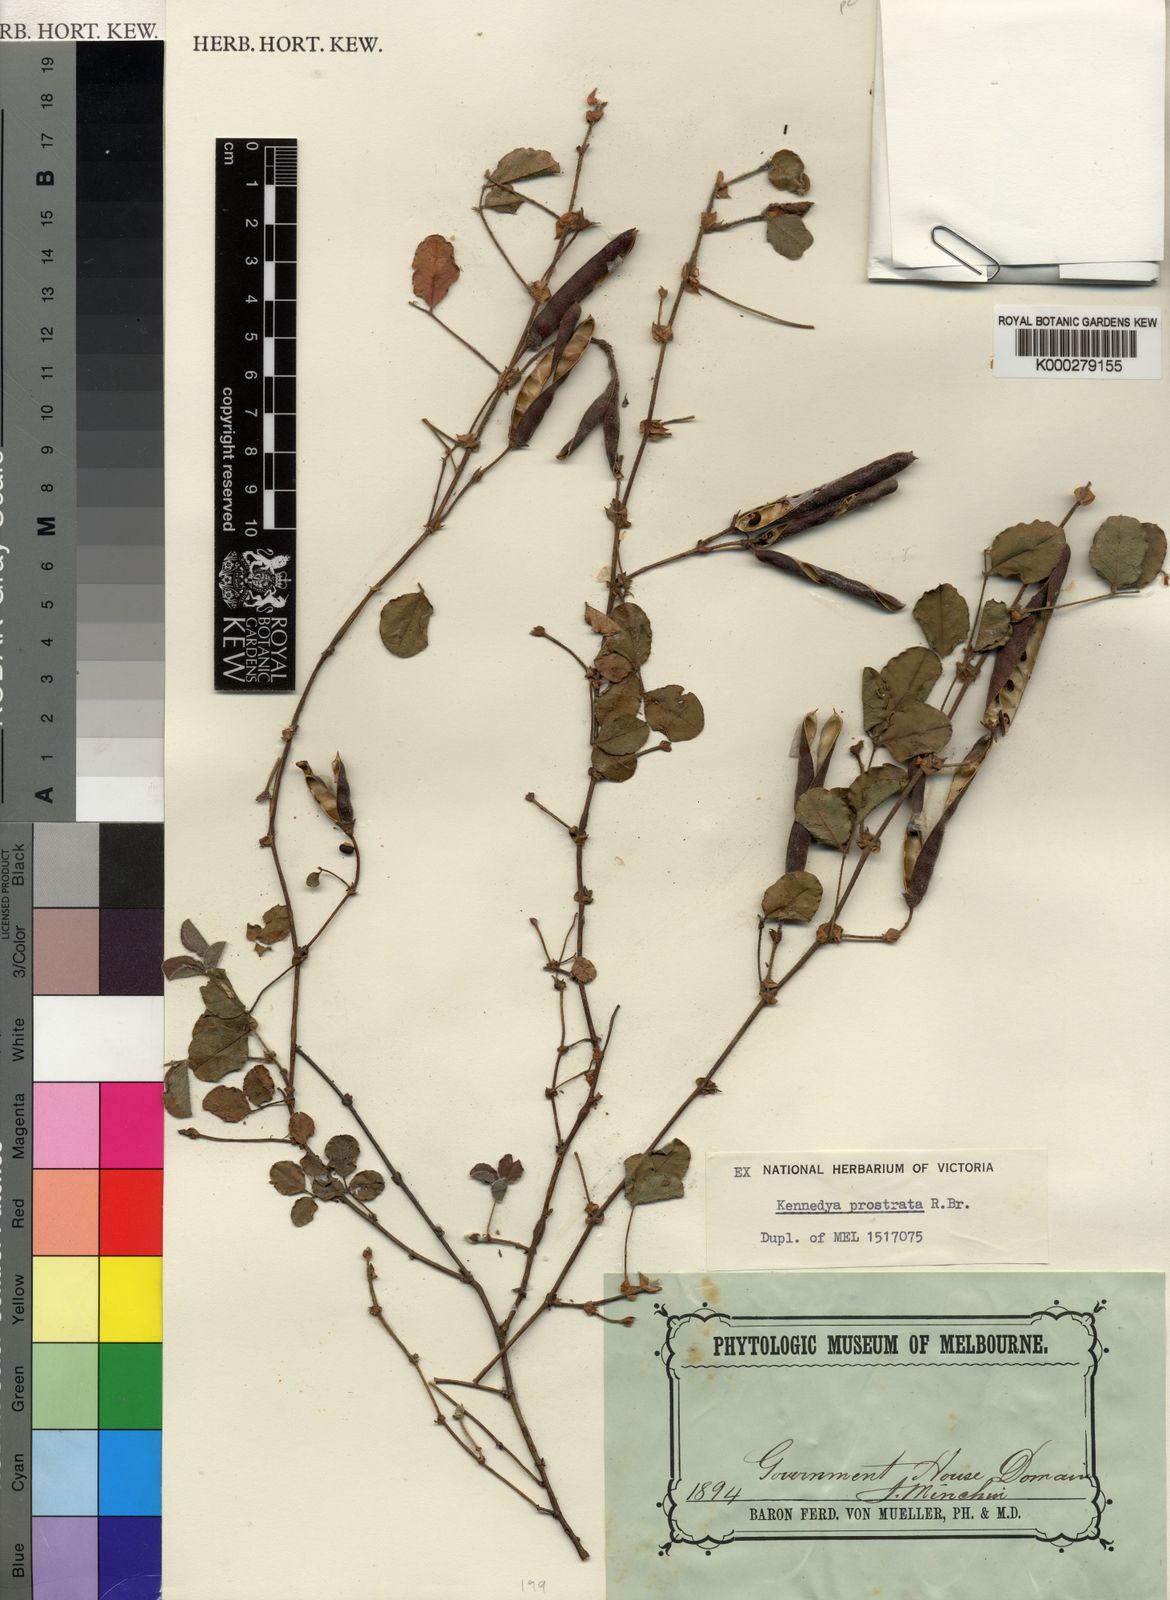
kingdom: Plantae
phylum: Tracheophyta
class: Magnoliopsida
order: Fabales
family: Fabaceae
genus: Kennedia
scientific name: Kennedia prostrata
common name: Running-postman
